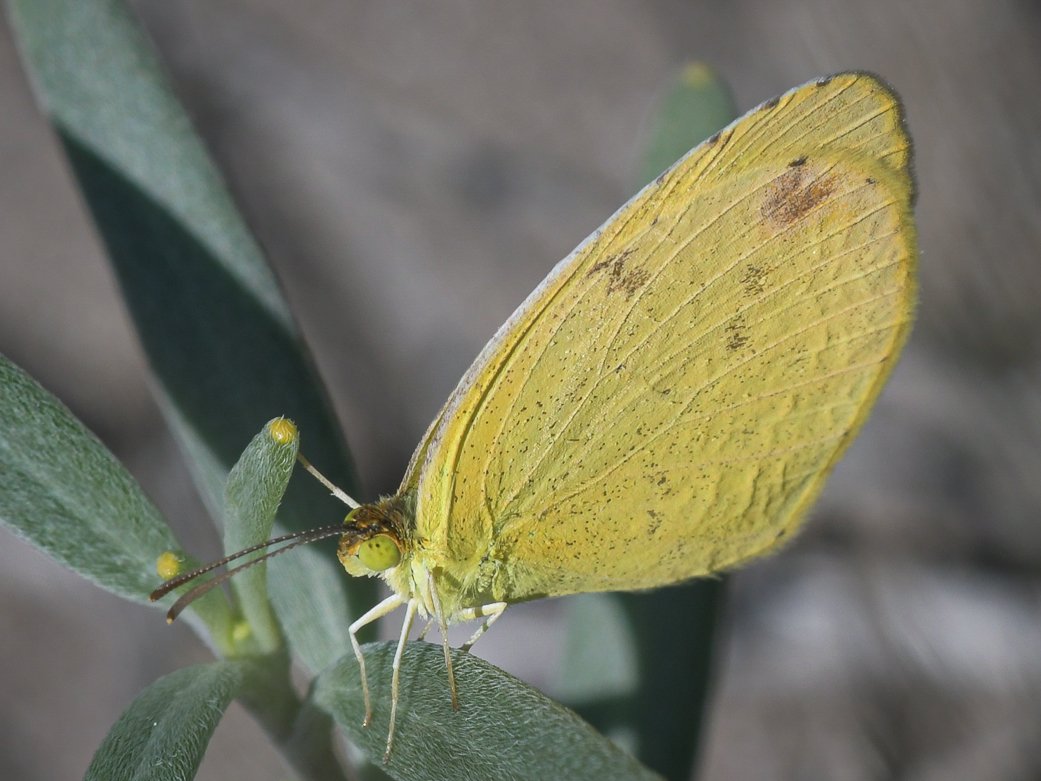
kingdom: Animalia
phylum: Arthropoda
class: Insecta
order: Lepidoptera
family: Pieridae
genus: Pyrisitia
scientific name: Pyrisitia nise
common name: Mimosa Yellow
